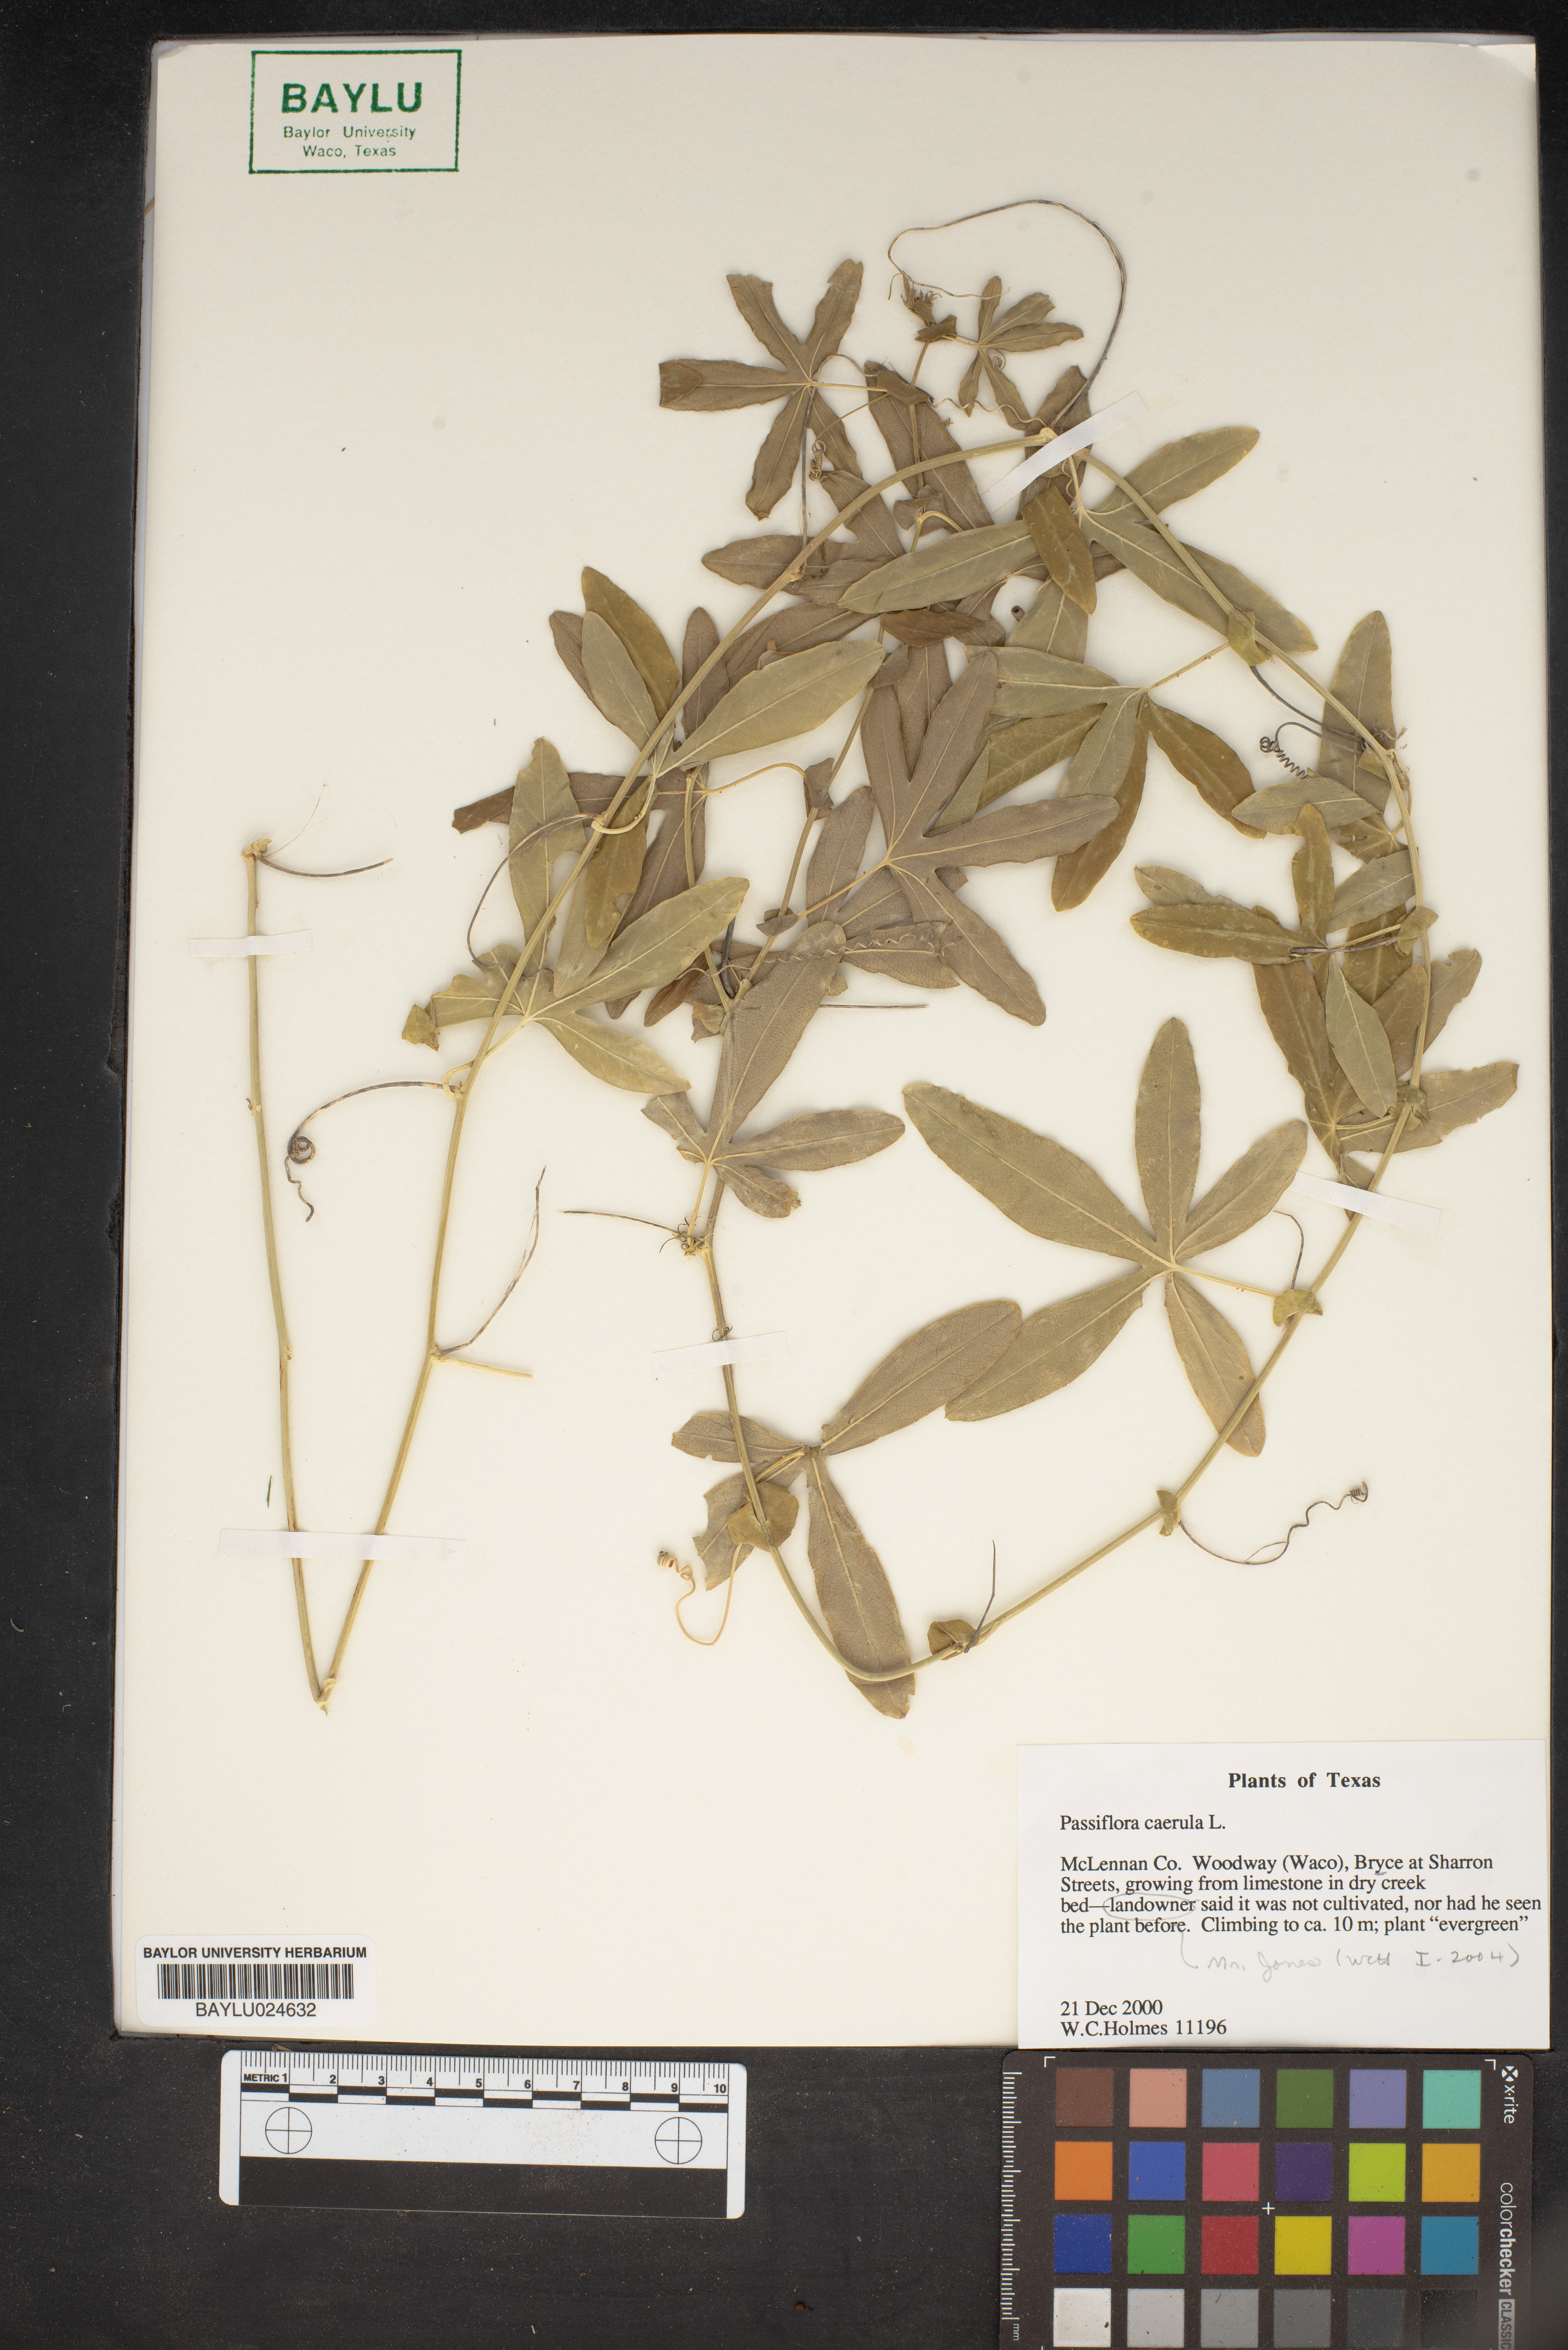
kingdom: Plantae
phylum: Tracheophyta
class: Magnoliopsida
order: Malpighiales
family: Passifloraceae
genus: Passiflora
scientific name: Passiflora caerulea
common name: Blue passionflower
